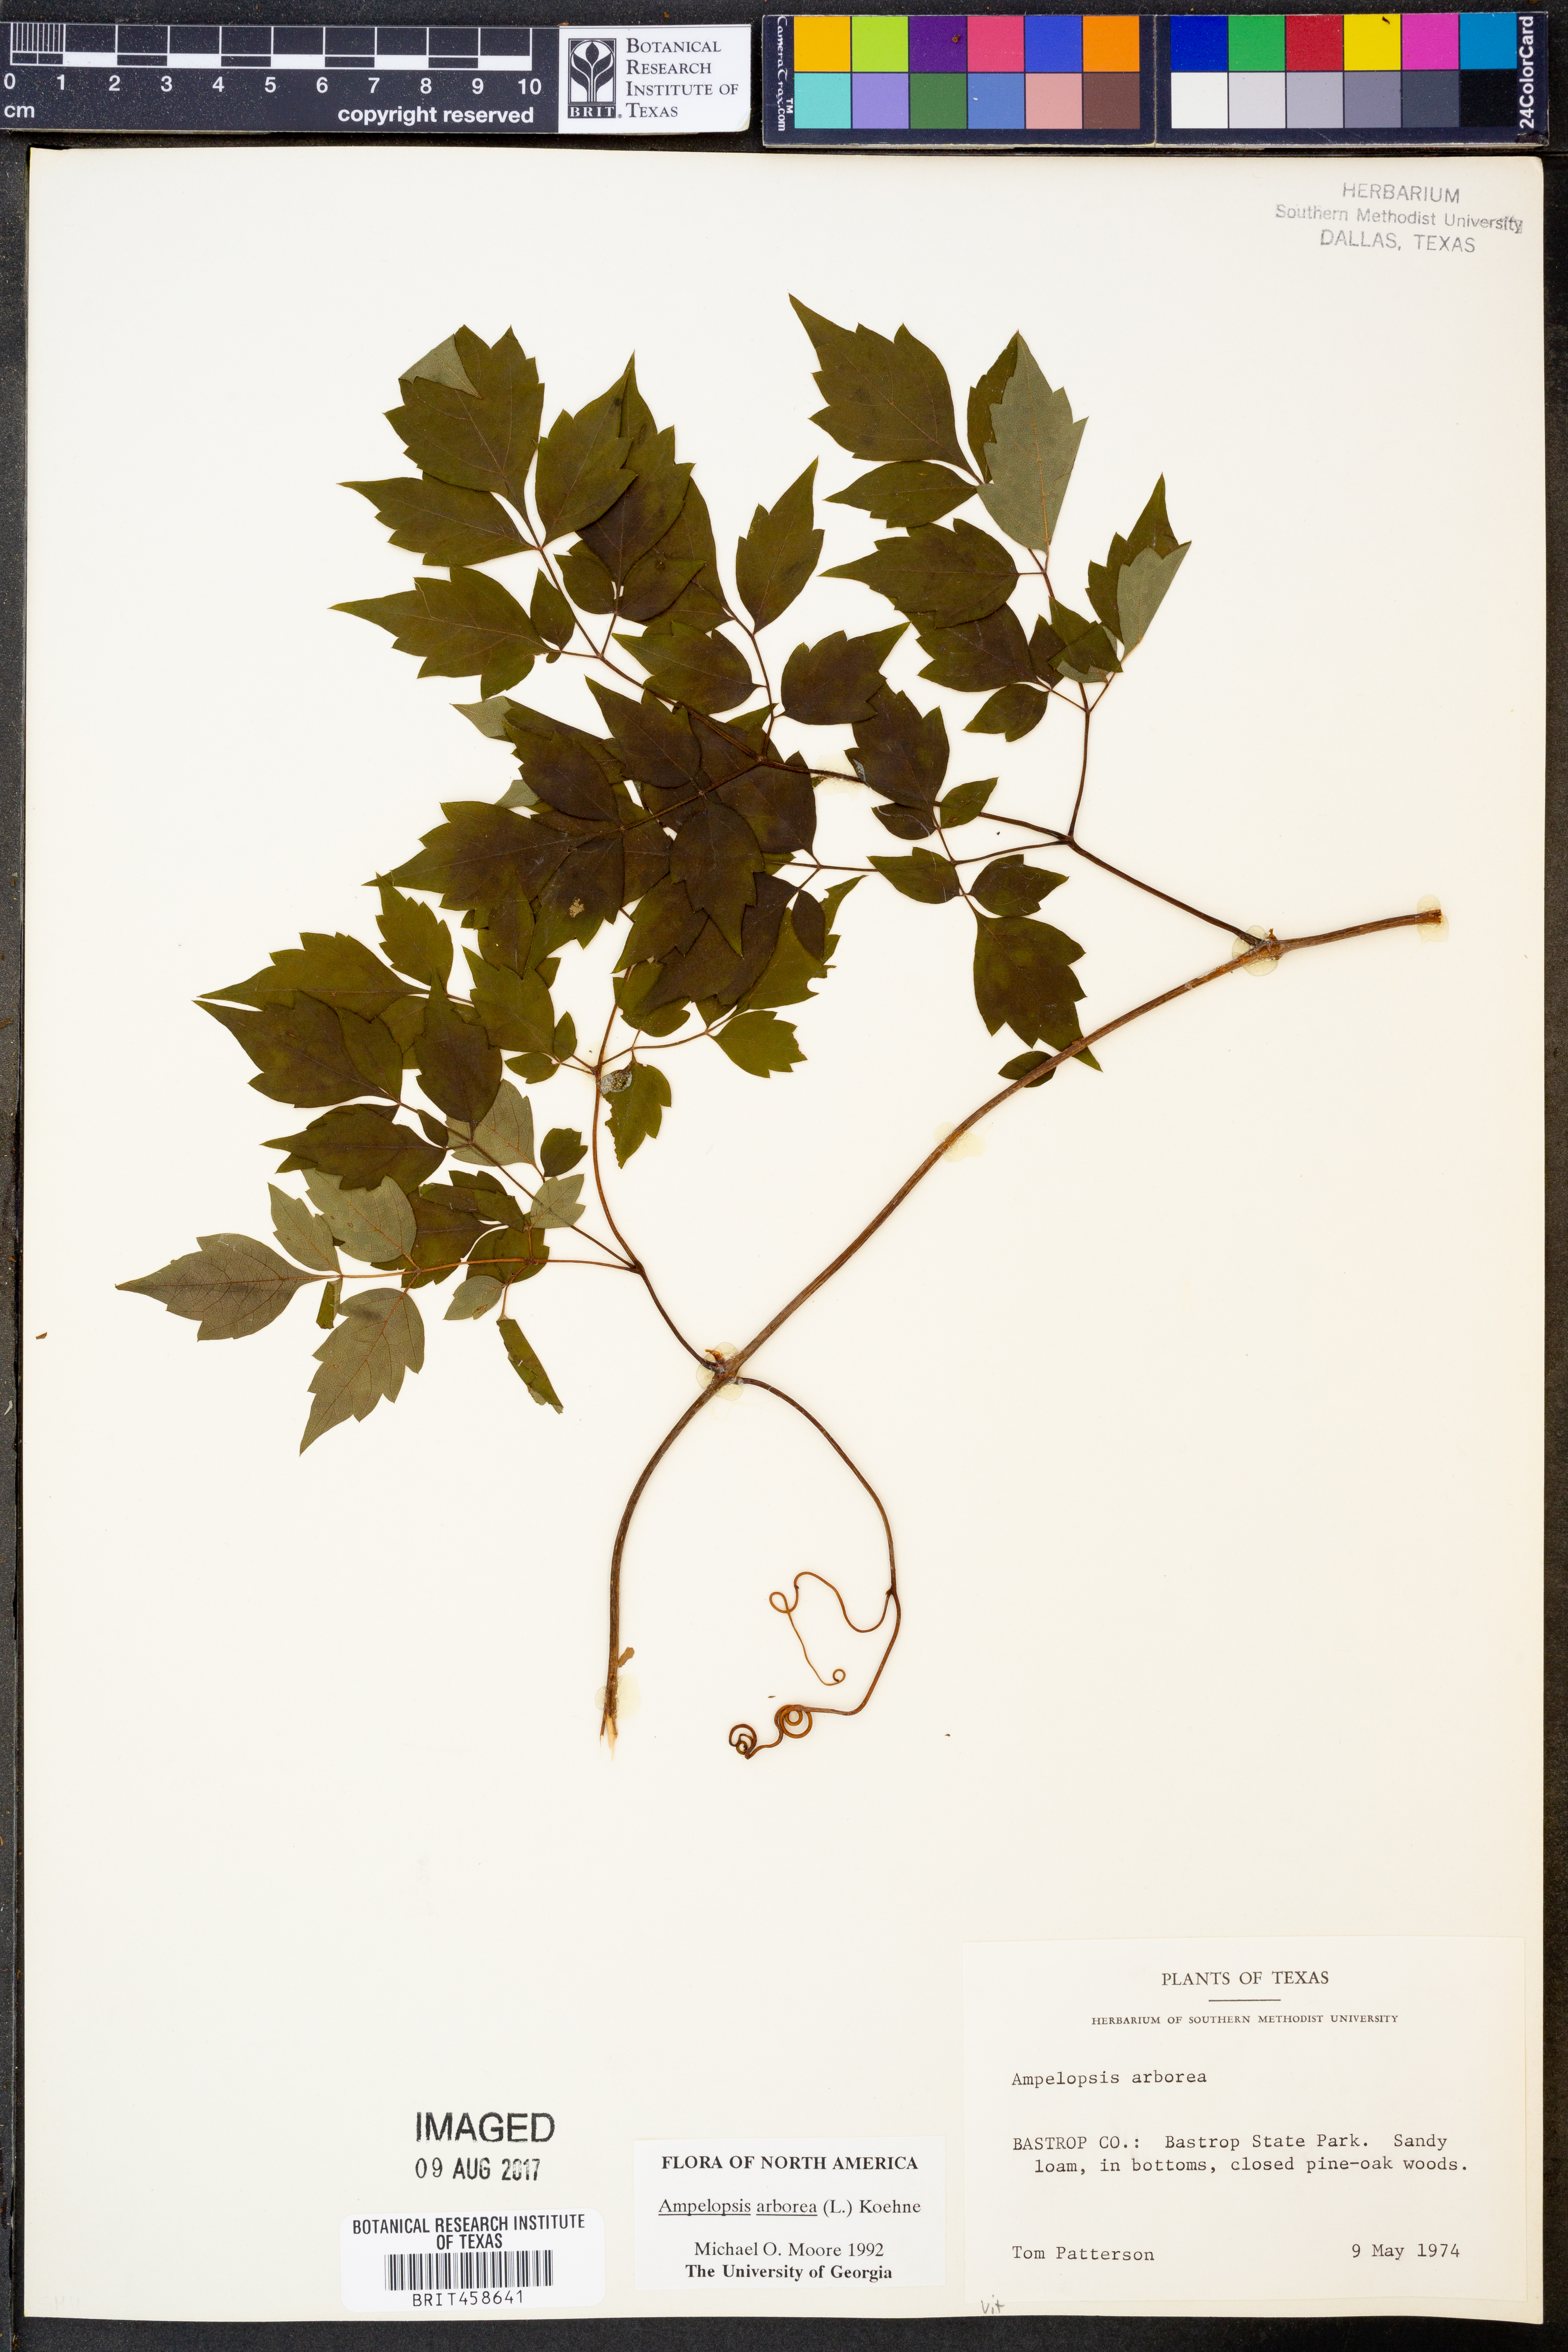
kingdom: Plantae
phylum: Tracheophyta
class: Magnoliopsida
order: Vitales
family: Vitaceae
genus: Nekemias
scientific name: Nekemias arborea
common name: Peppervine
